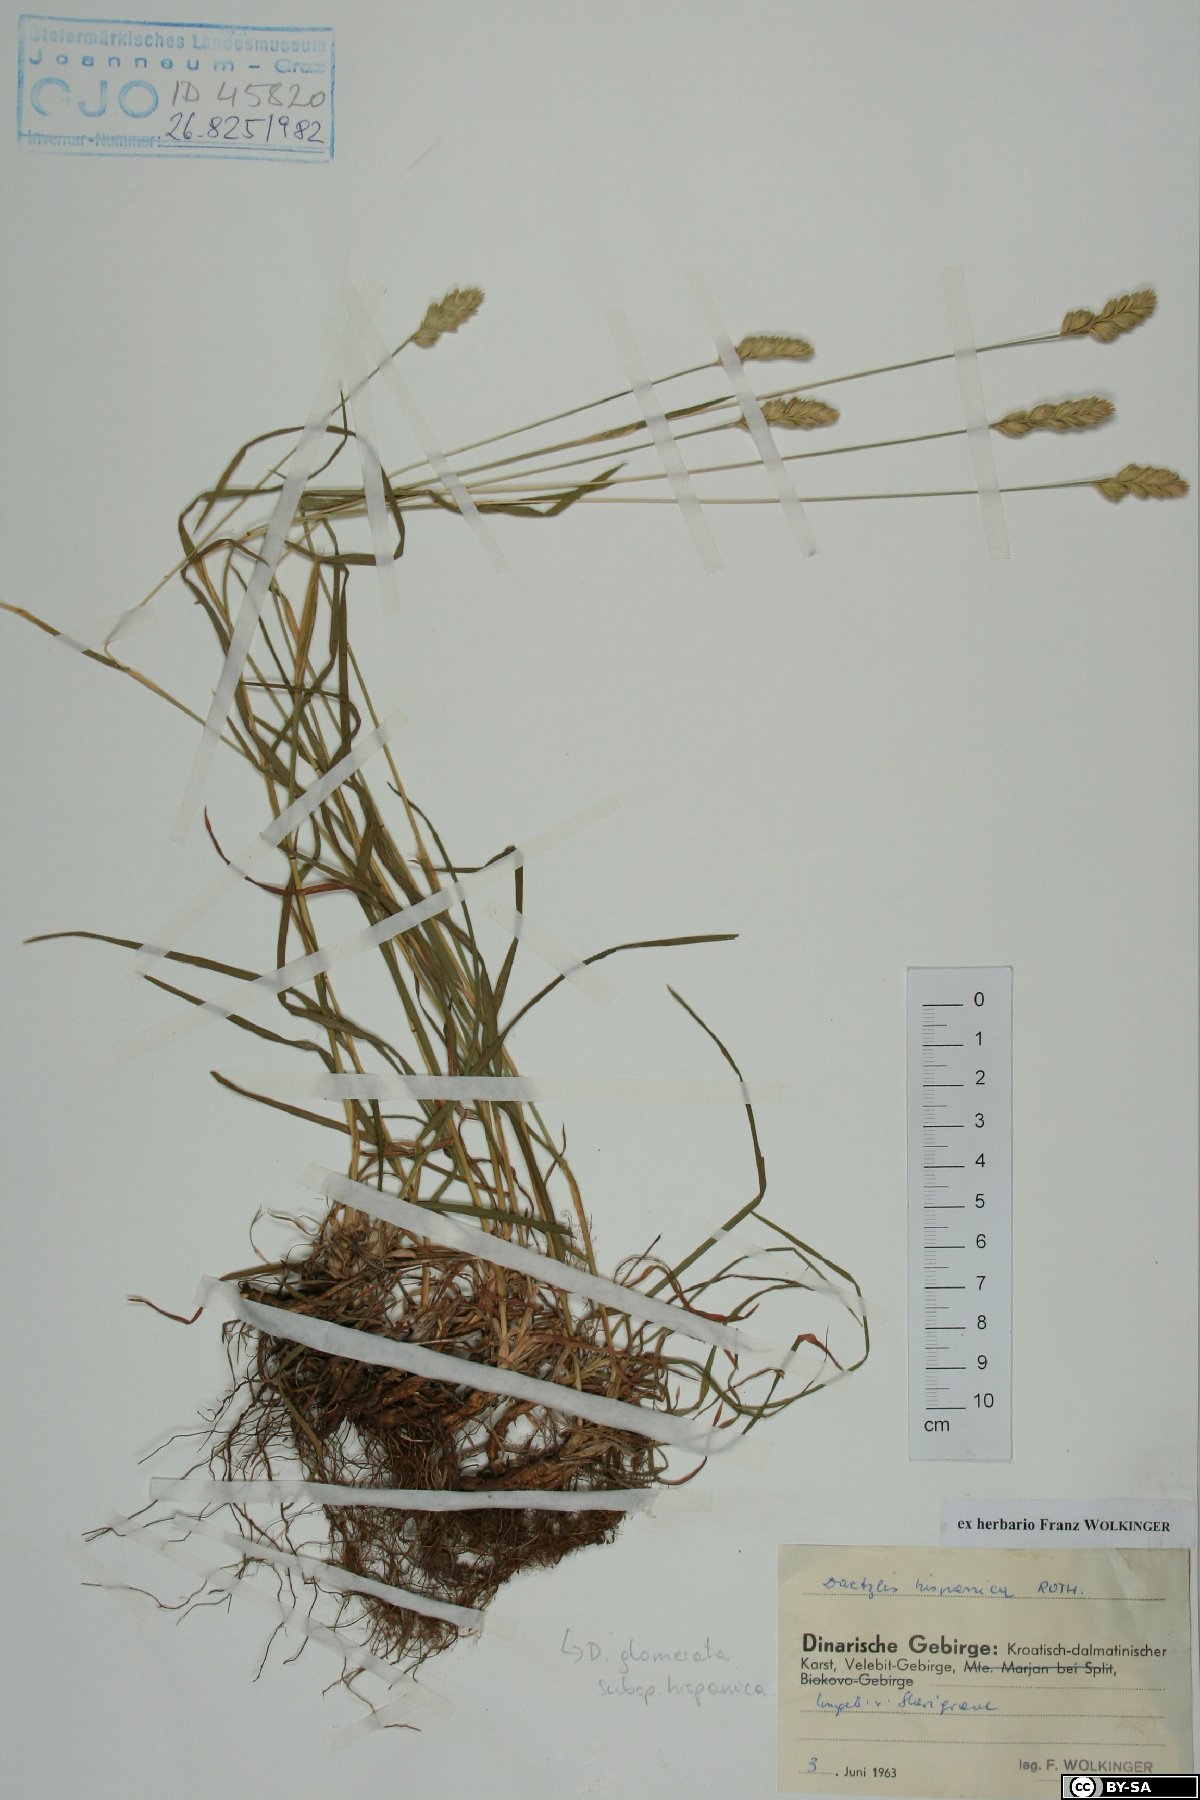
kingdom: Plantae
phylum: Tracheophyta
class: Liliopsida
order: Poales
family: Poaceae
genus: Dactylis
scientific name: Dactylis glomerata
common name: Orchardgrass
